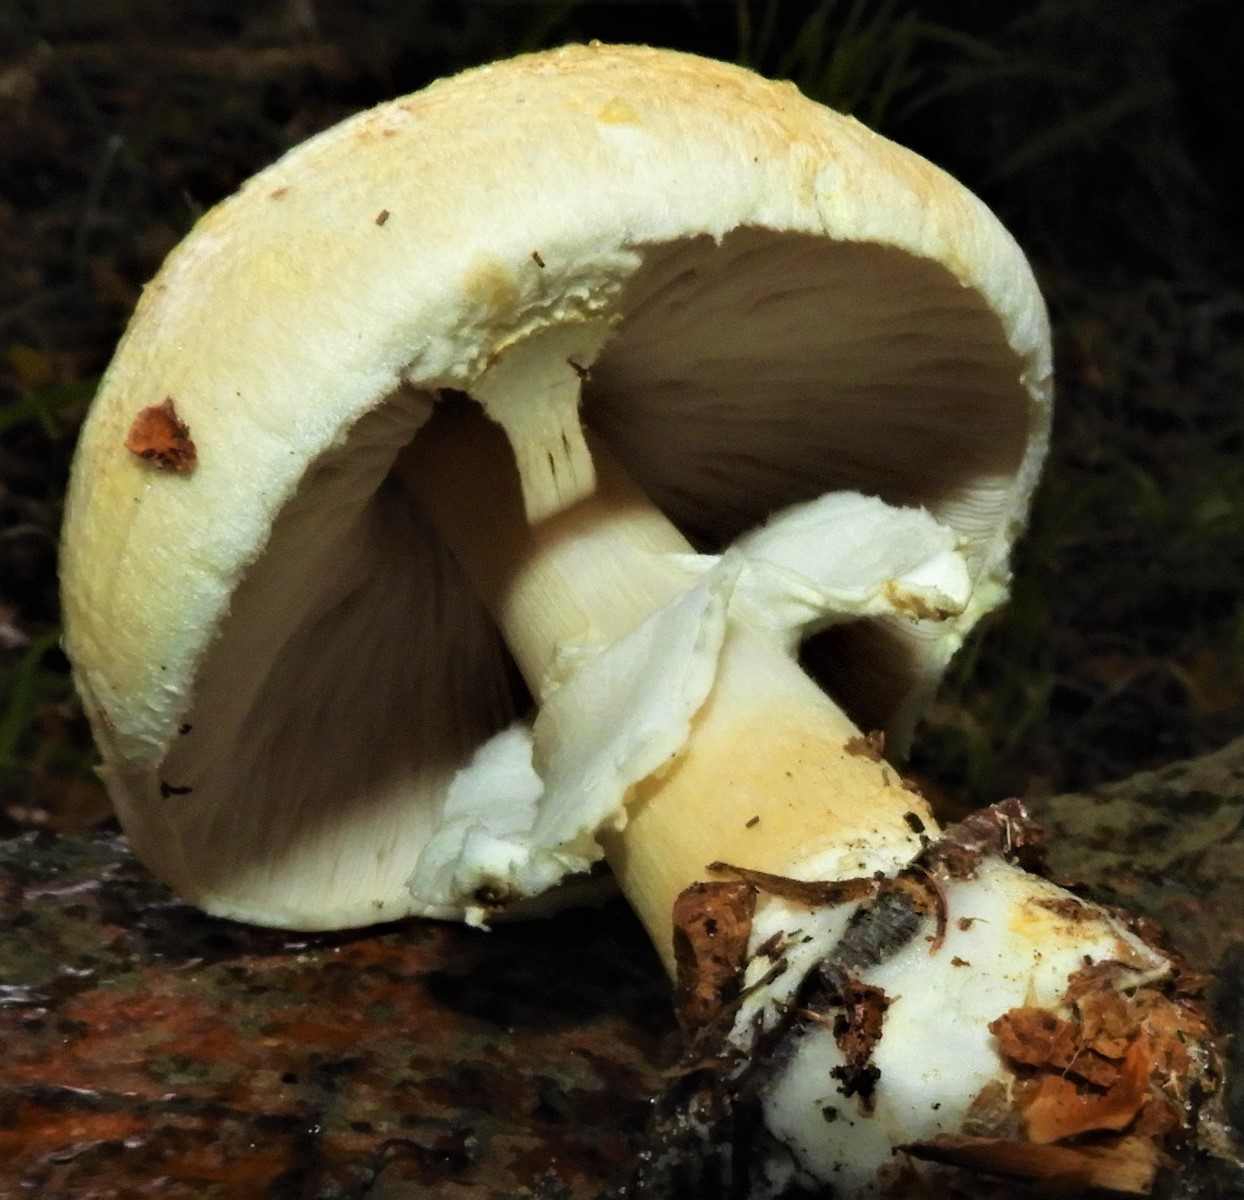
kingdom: Fungi
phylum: Basidiomycota
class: Agaricomycetes
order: Agaricales
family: Agaricaceae
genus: Agaricus
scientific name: Agaricus
